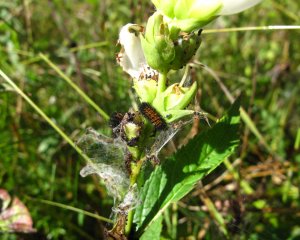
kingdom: Animalia
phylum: Arthropoda
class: Insecta
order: Lepidoptera
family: Nymphalidae
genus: Euphydryas
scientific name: Euphydryas phaeton
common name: Baltimore Checkerspot
